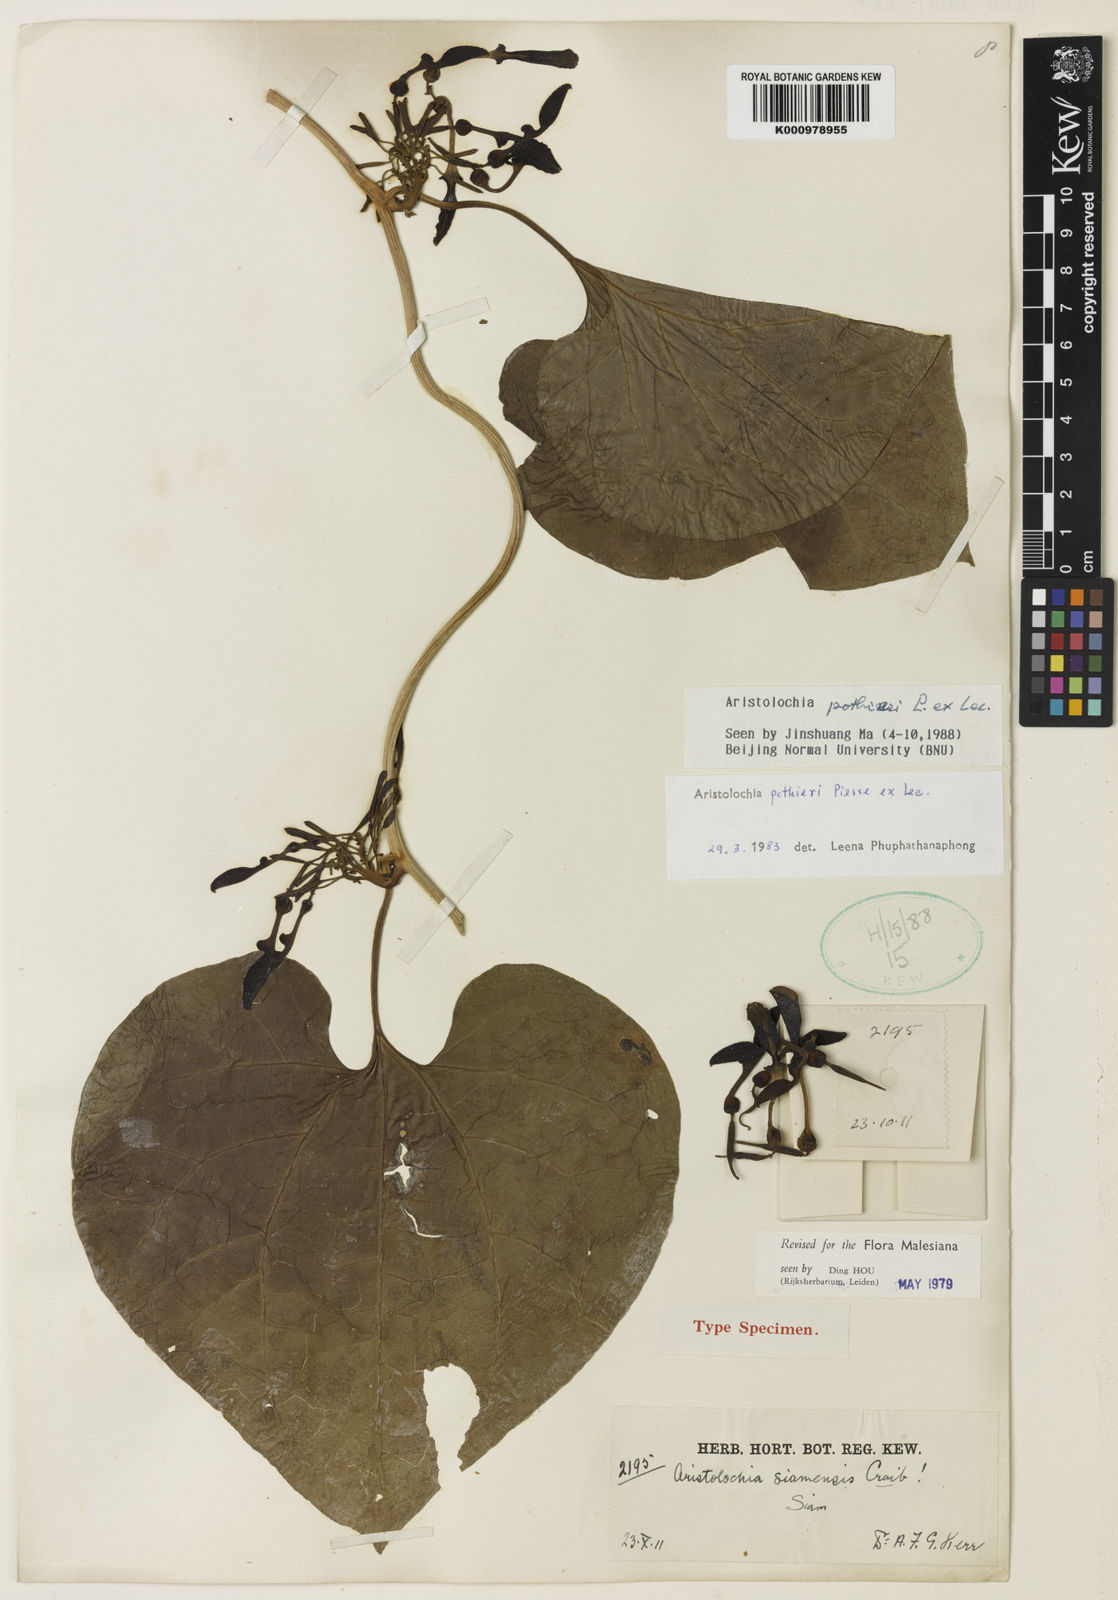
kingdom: Plantae
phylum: Tracheophyta
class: Magnoliopsida
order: Piperales
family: Aristolochiaceae
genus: Aristolochia
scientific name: Aristolochia pothieri
